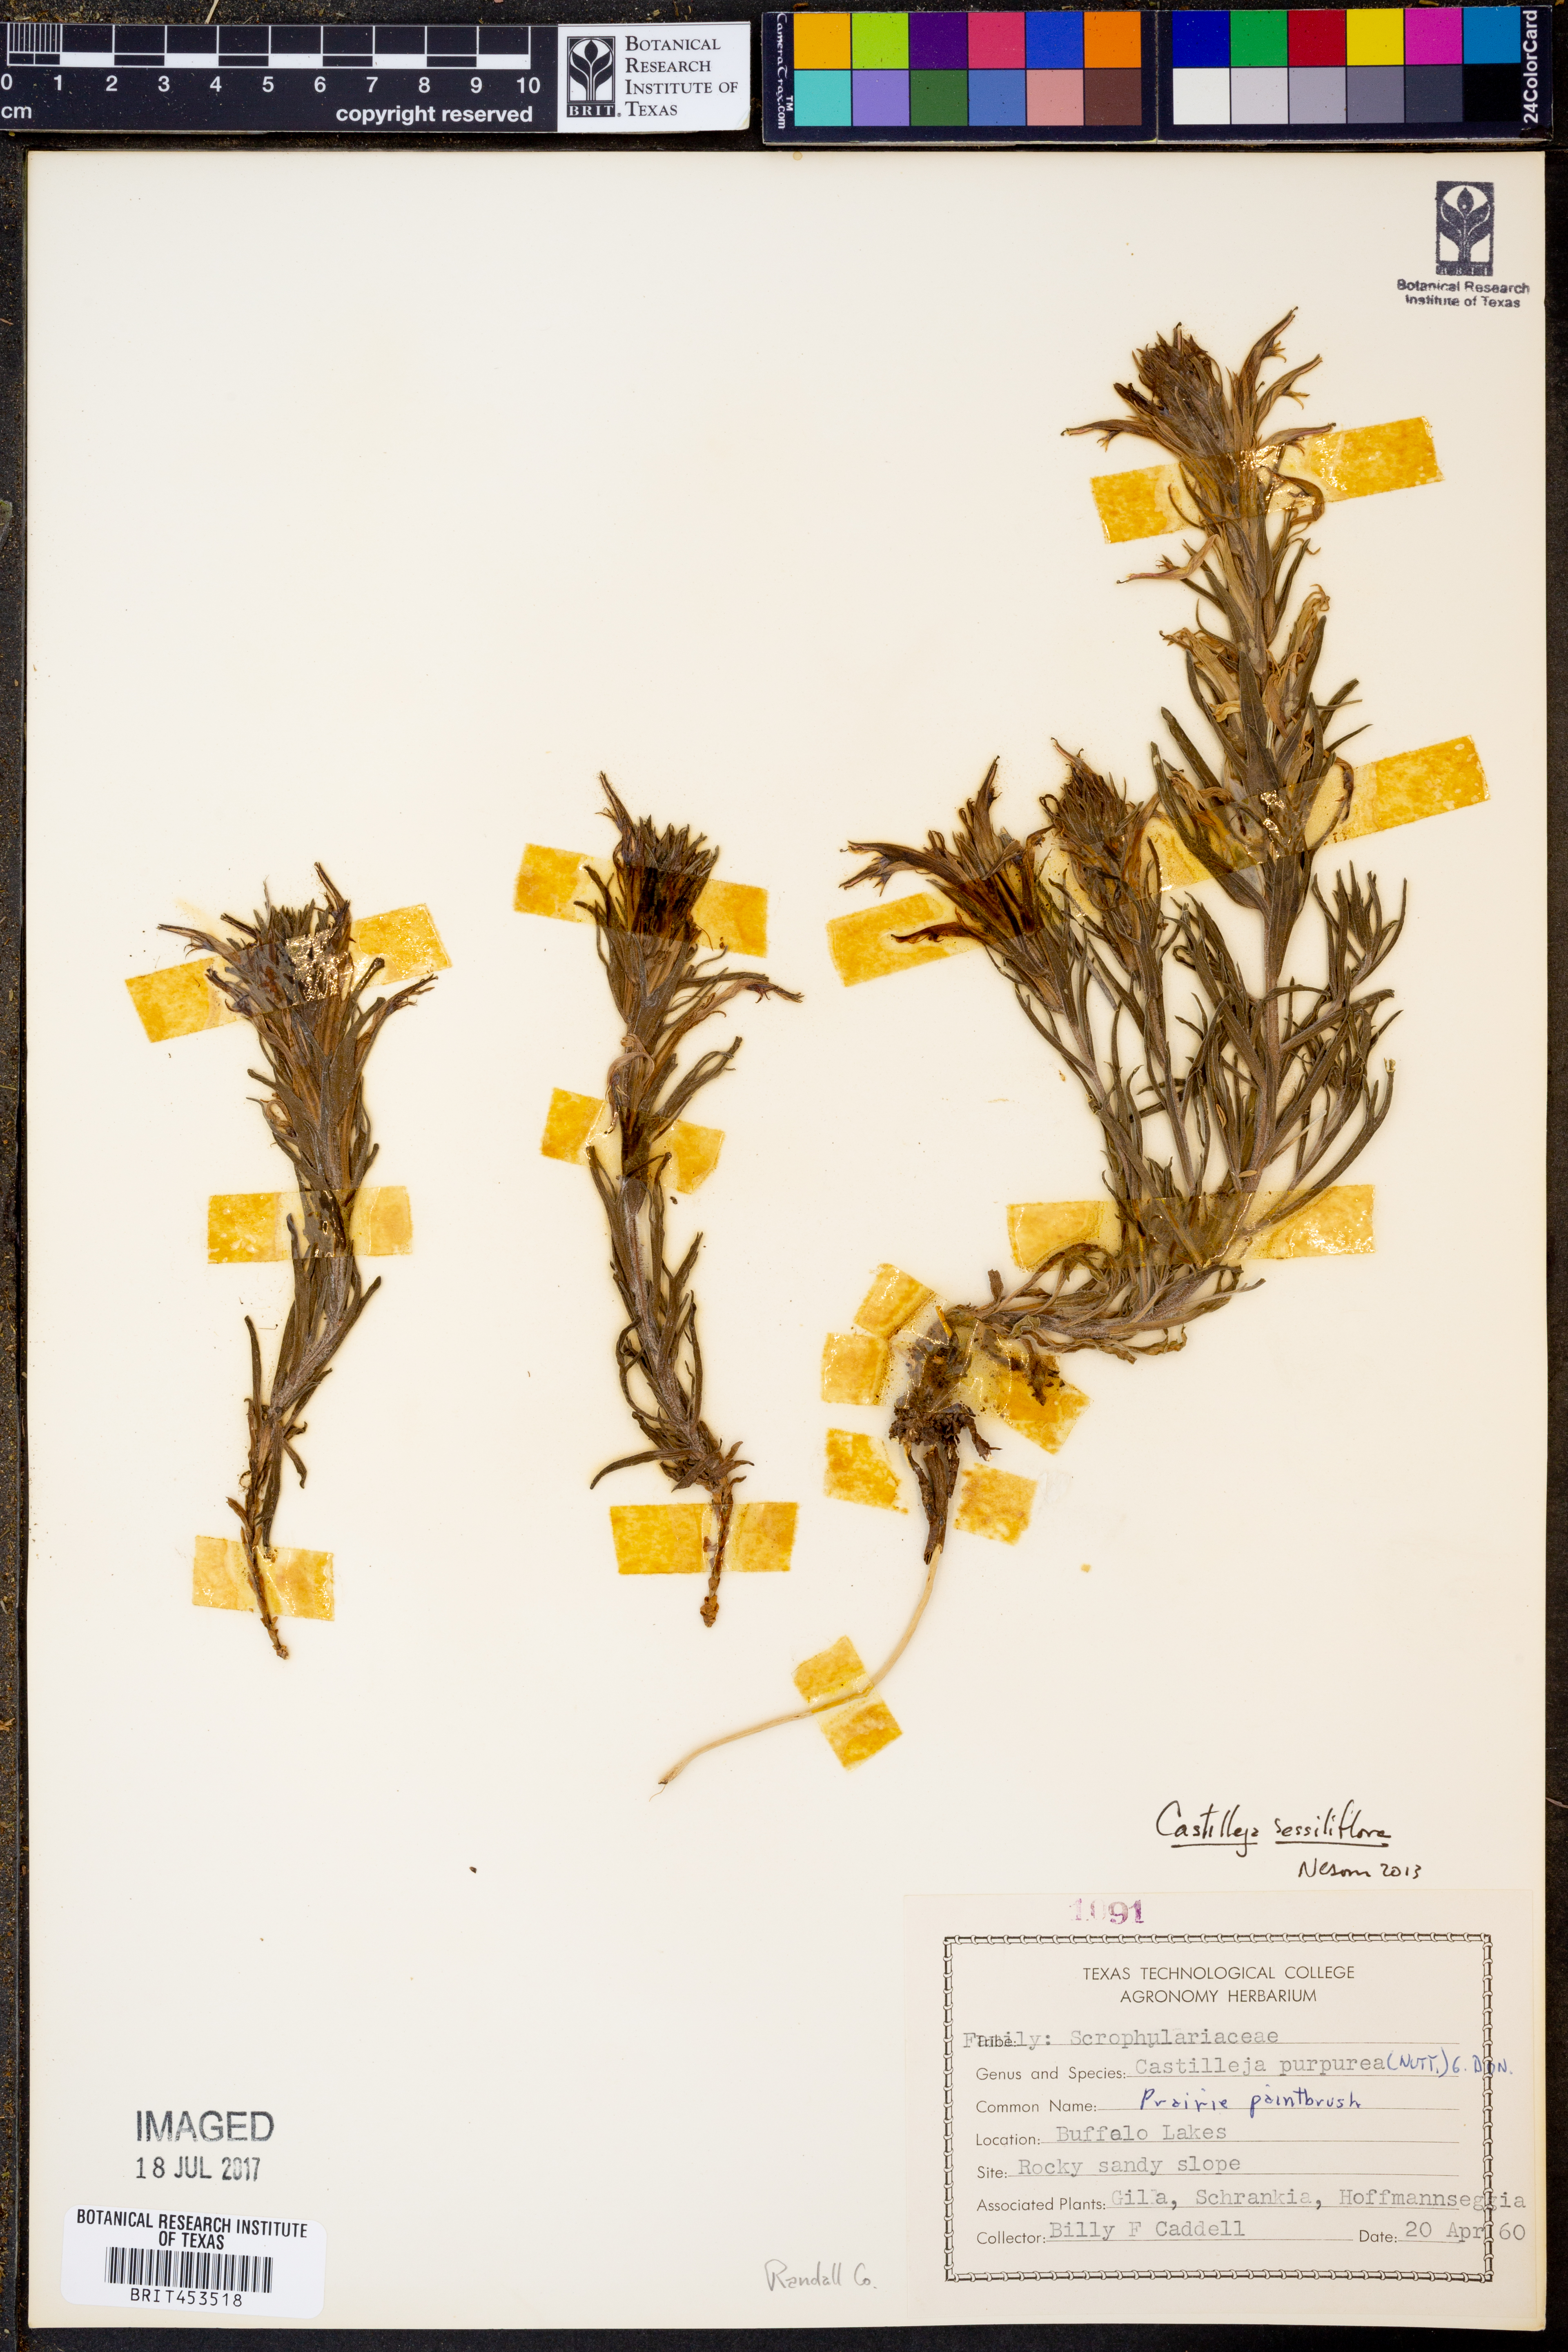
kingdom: Plantae
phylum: Tracheophyta
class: Magnoliopsida
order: Lamiales
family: Orobanchaceae
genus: Castilleja
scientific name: Castilleja sessiliflora
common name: Downy paintbrush
